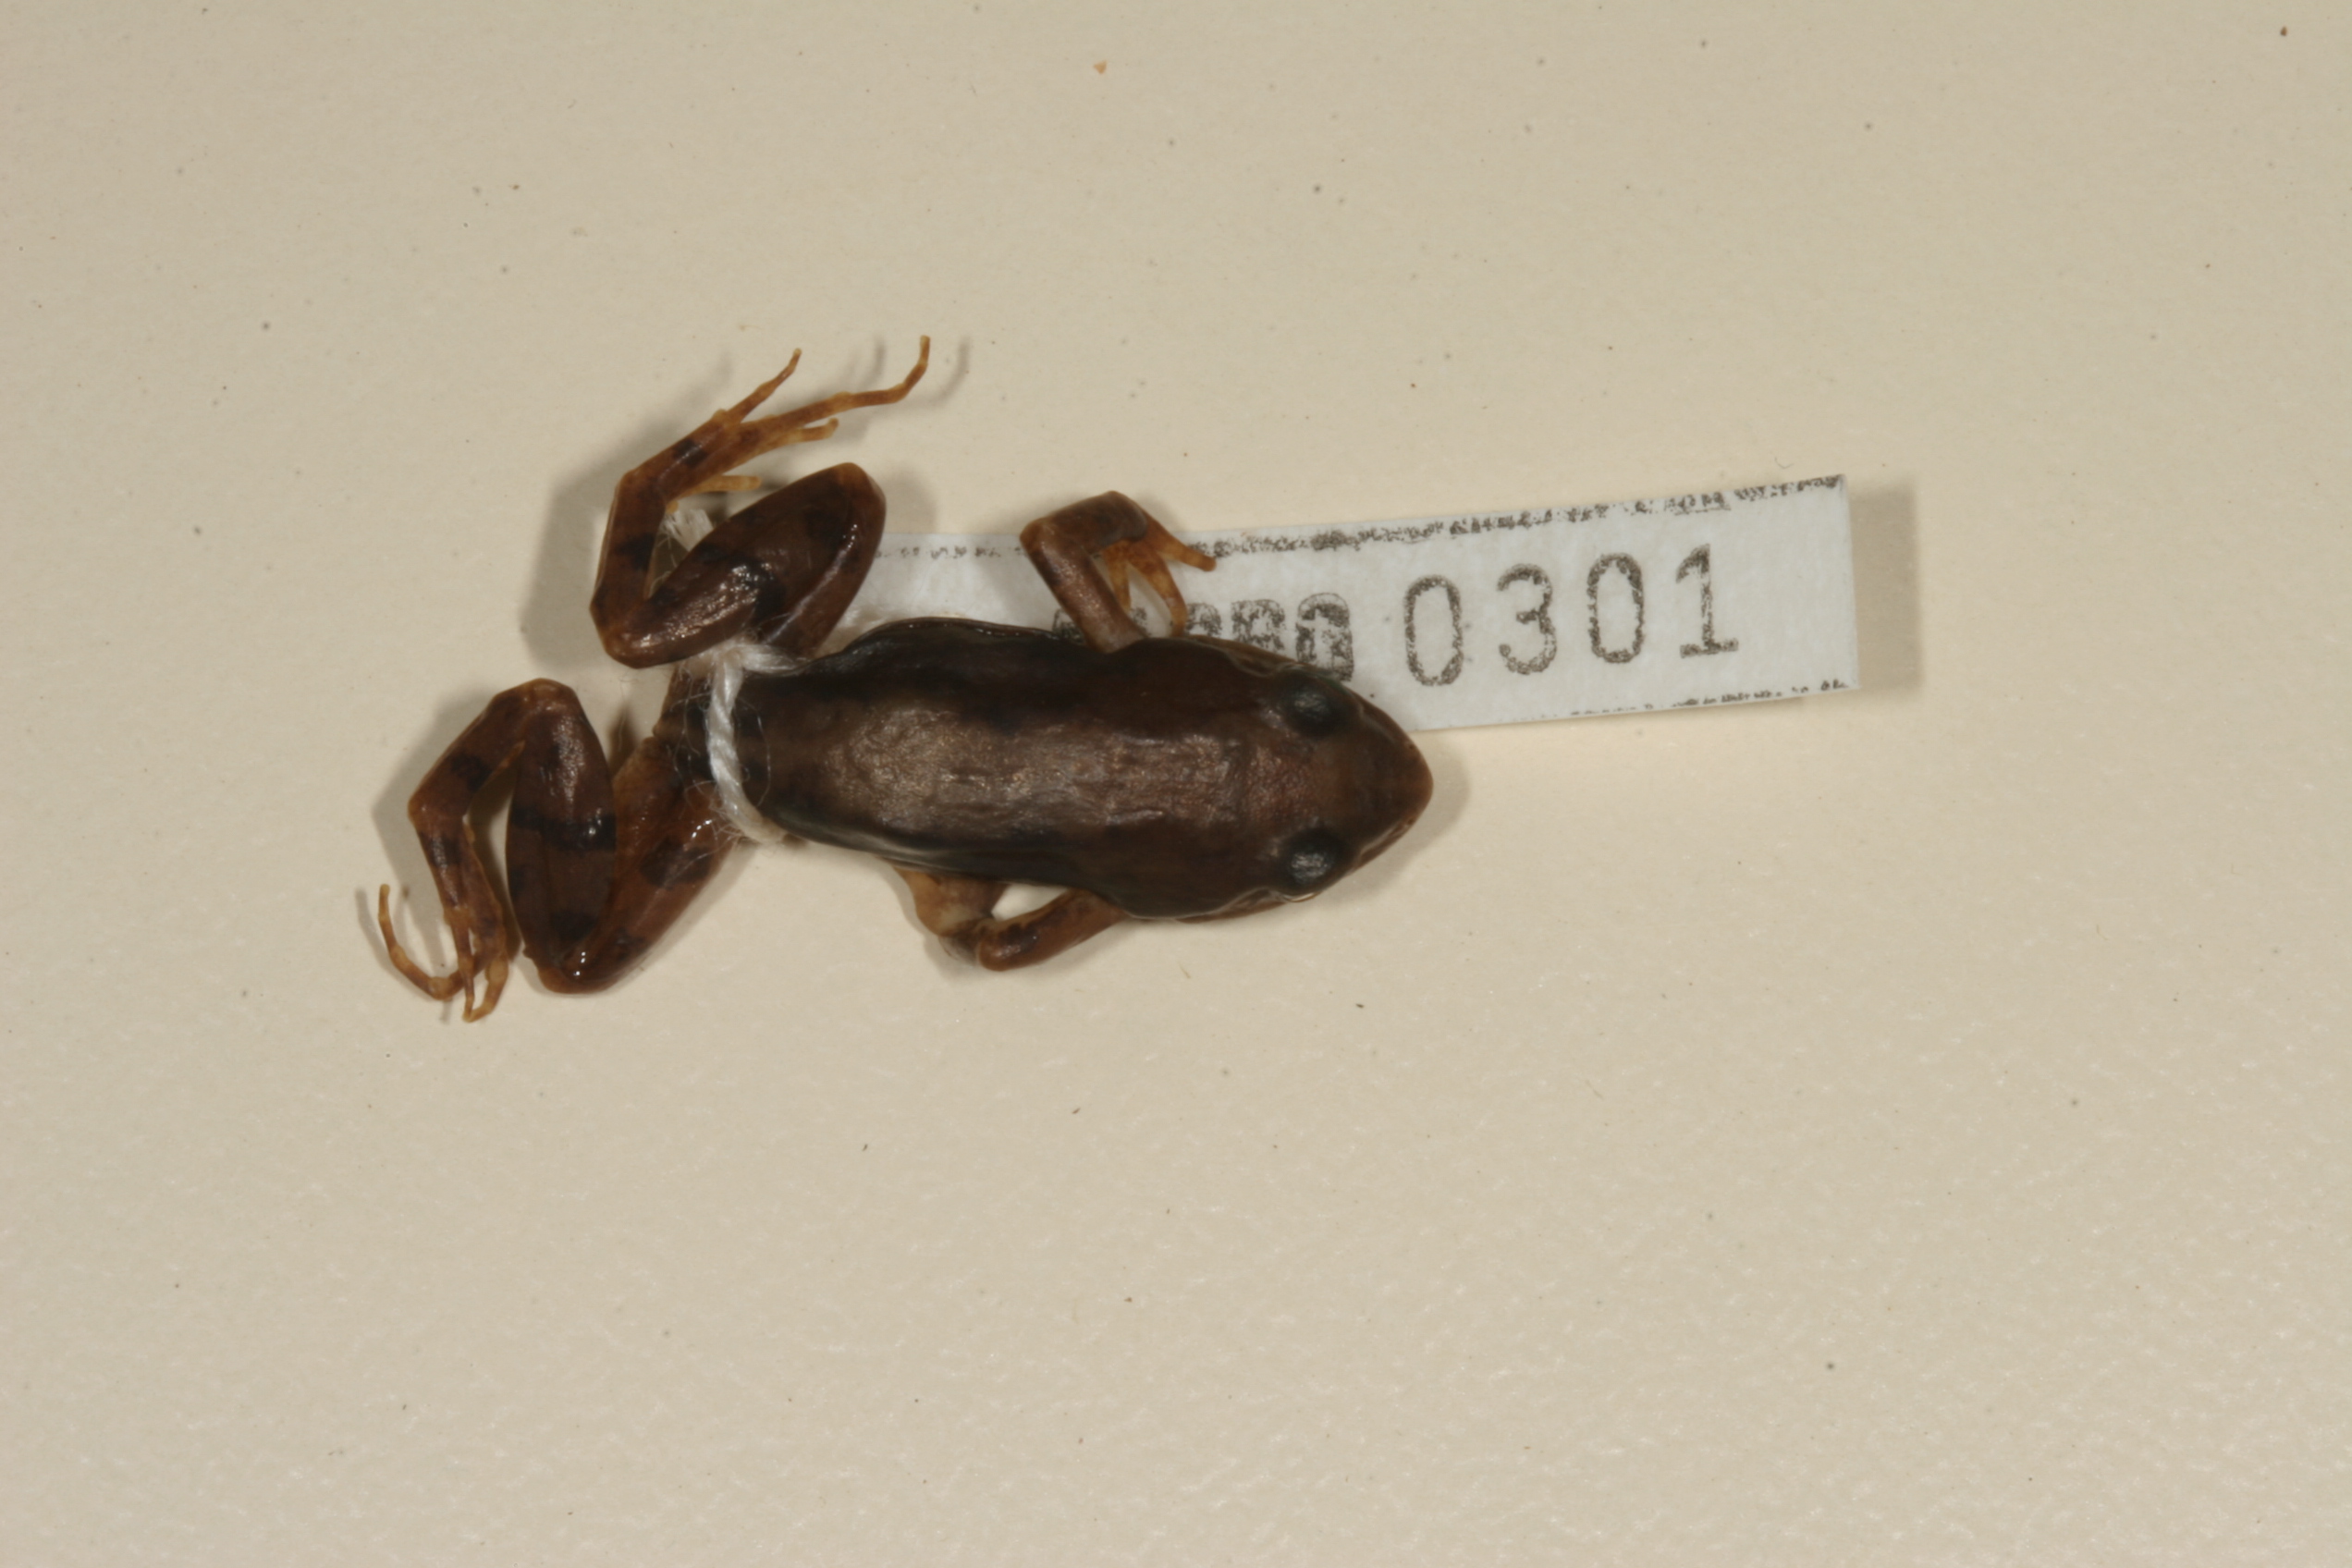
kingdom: Animalia
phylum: Chordata
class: Amphibia
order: Anura
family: Pyxicephalidae
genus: Cacosternum
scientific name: Cacosternum nanum
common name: Bronze dainty frog
